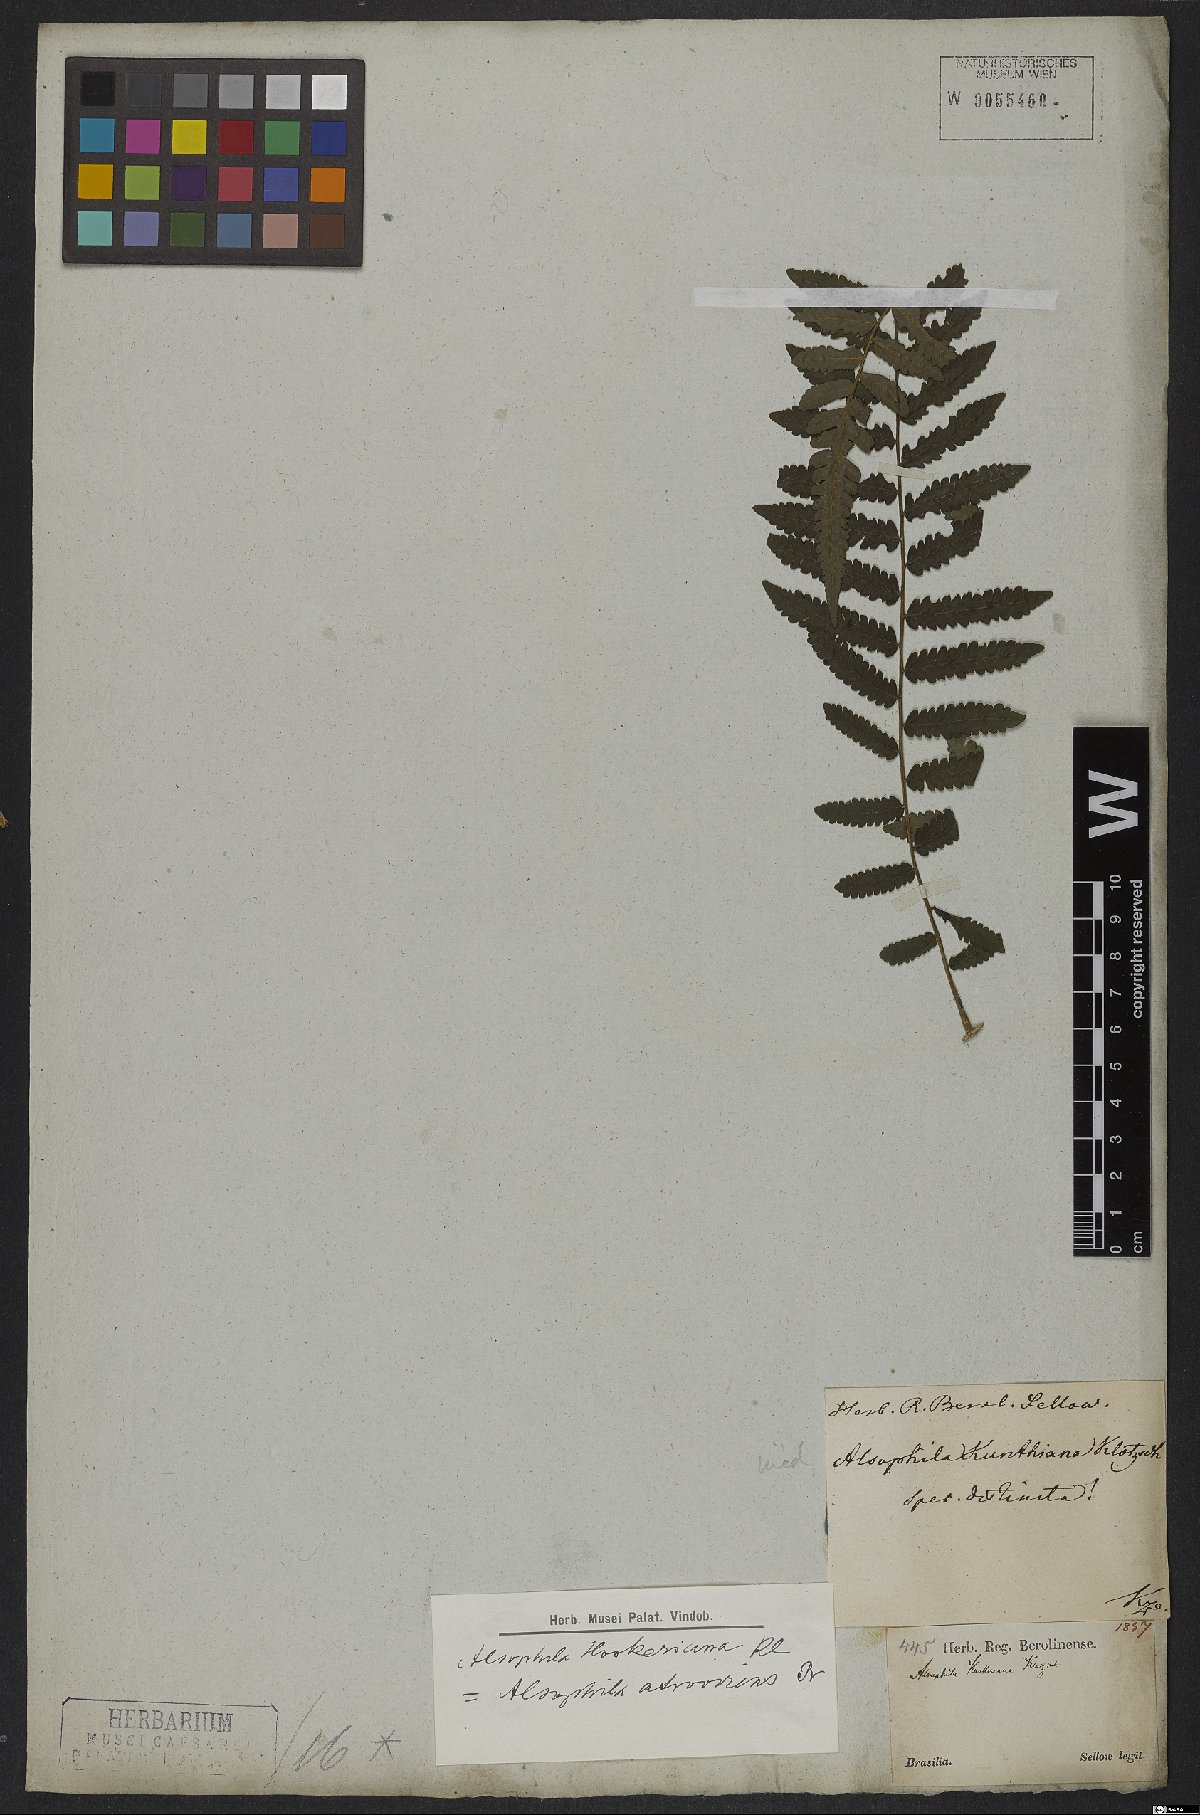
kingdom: Plantae
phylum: Tracheophyta
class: Polypodiopsida
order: Cyatheales
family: Cyatheaceae
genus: Cyathea
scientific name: Cyathea atrovirens
